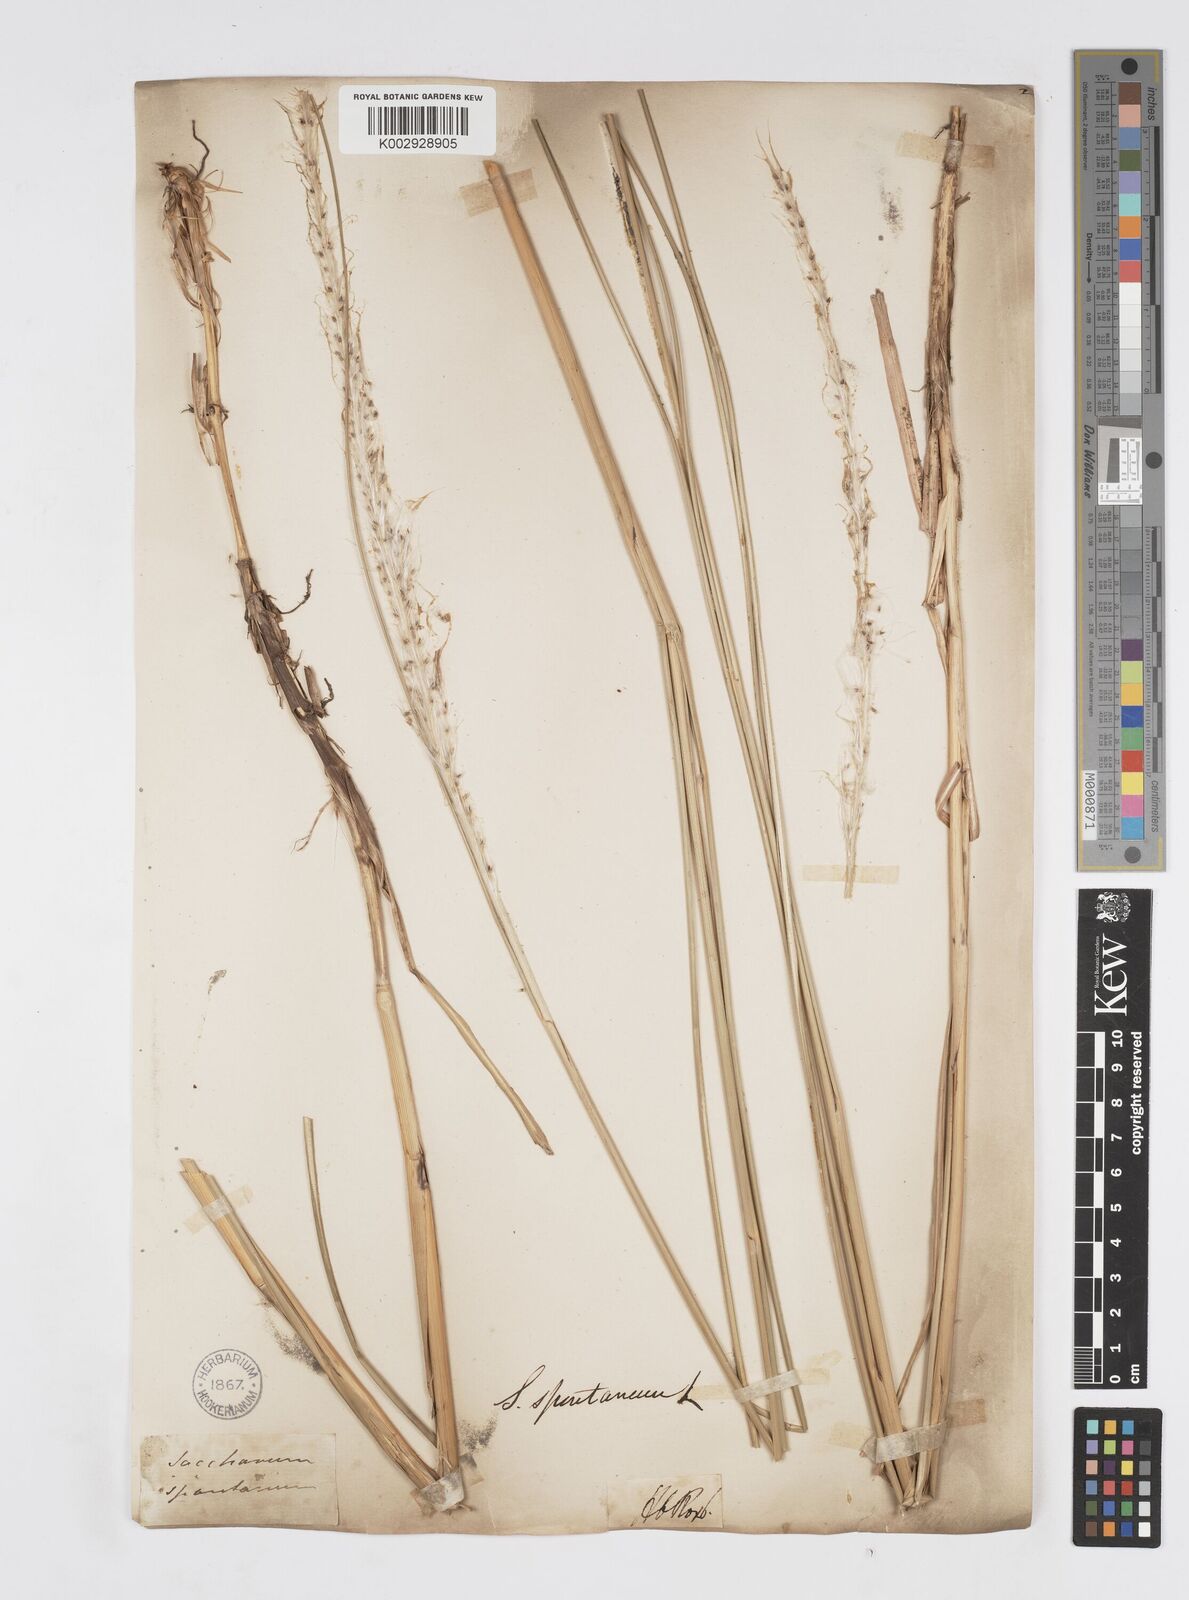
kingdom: Plantae
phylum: Tracheophyta
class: Liliopsida
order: Poales
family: Poaceae
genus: Saccharum
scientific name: Saccharum spontaneum
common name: Wild sugarcane
